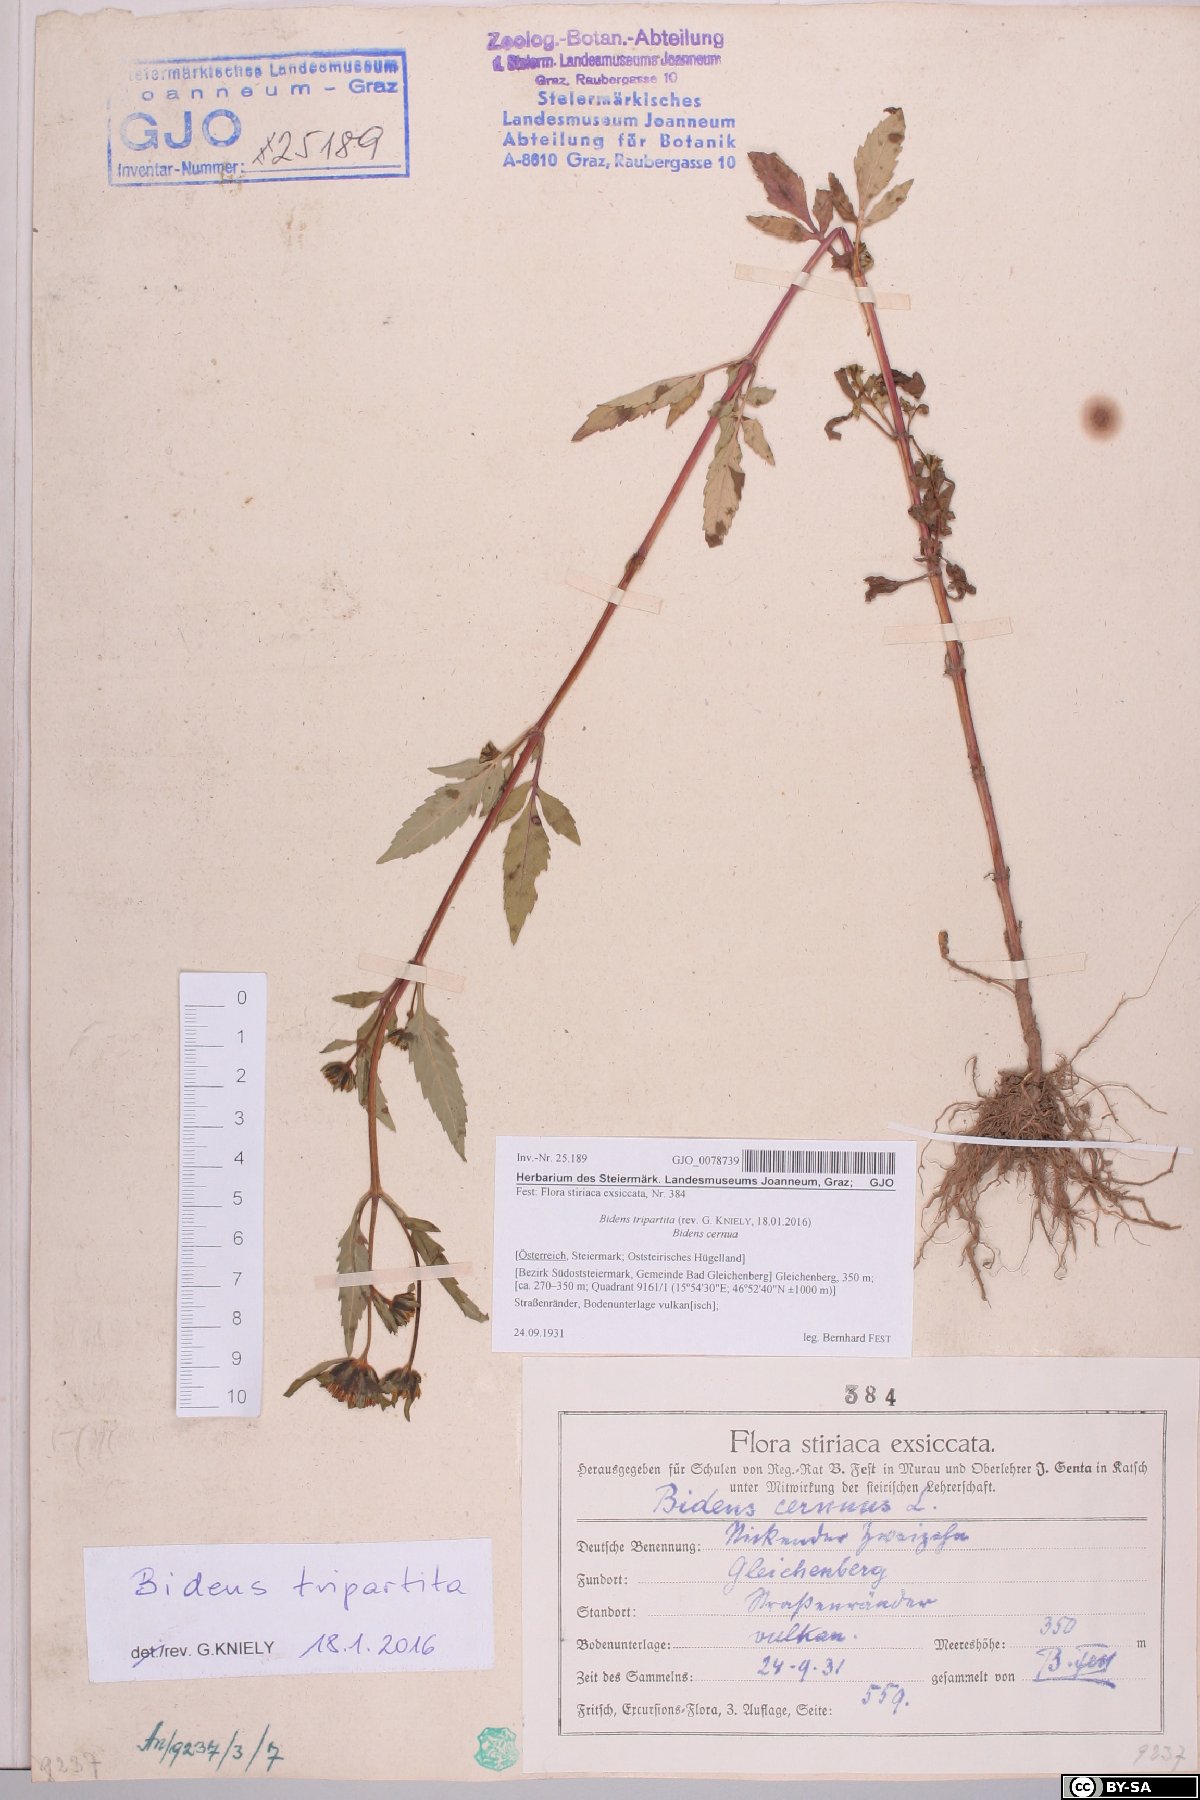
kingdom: Plantae
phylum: Tracheophyta
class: Magnoliopsida
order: Asterales
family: Asteraceae
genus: Bidens
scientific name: Bidens tripartita
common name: Trifid bur-marigold
